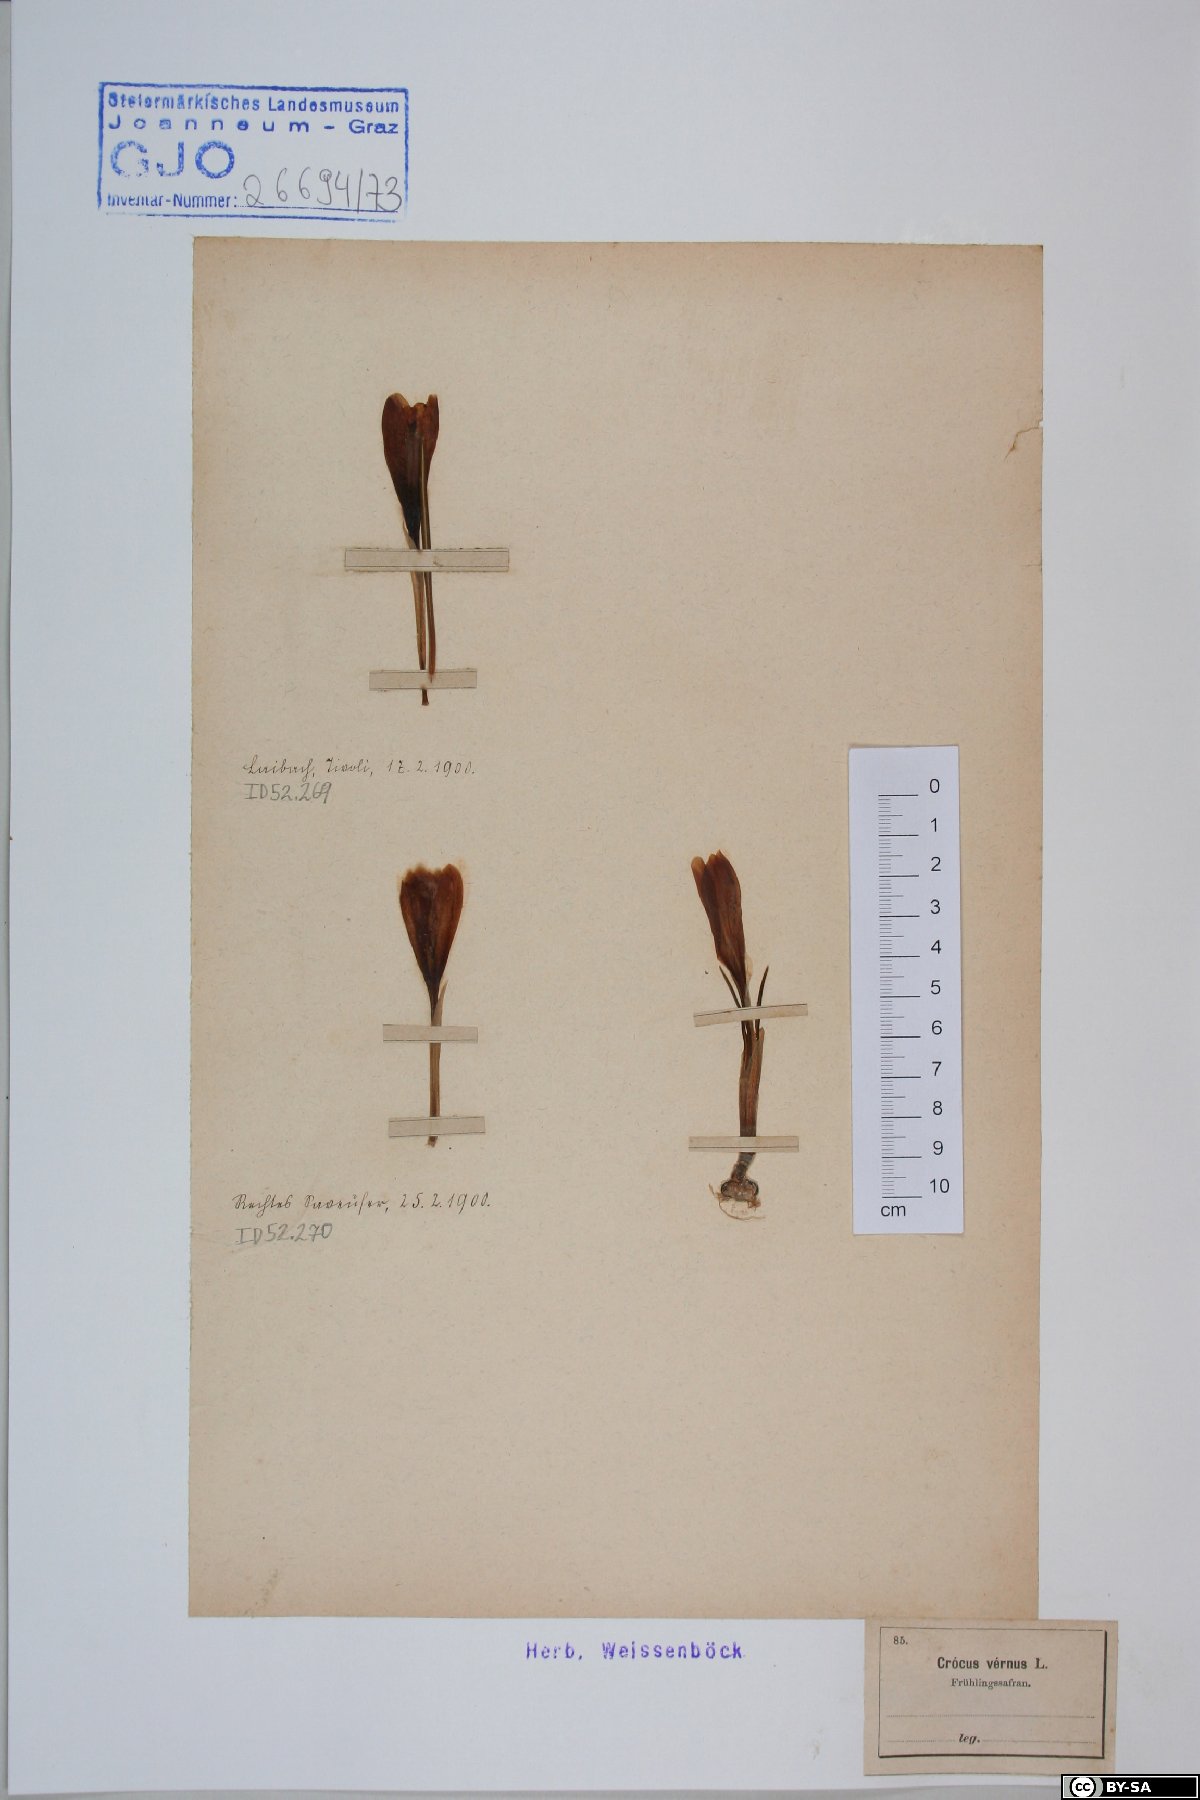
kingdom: Plantae
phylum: Tracheophyta
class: Liliopsida
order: Asparagales
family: Iridaceae
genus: Crocus
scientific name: Crocus vernus
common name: Spring crocus
